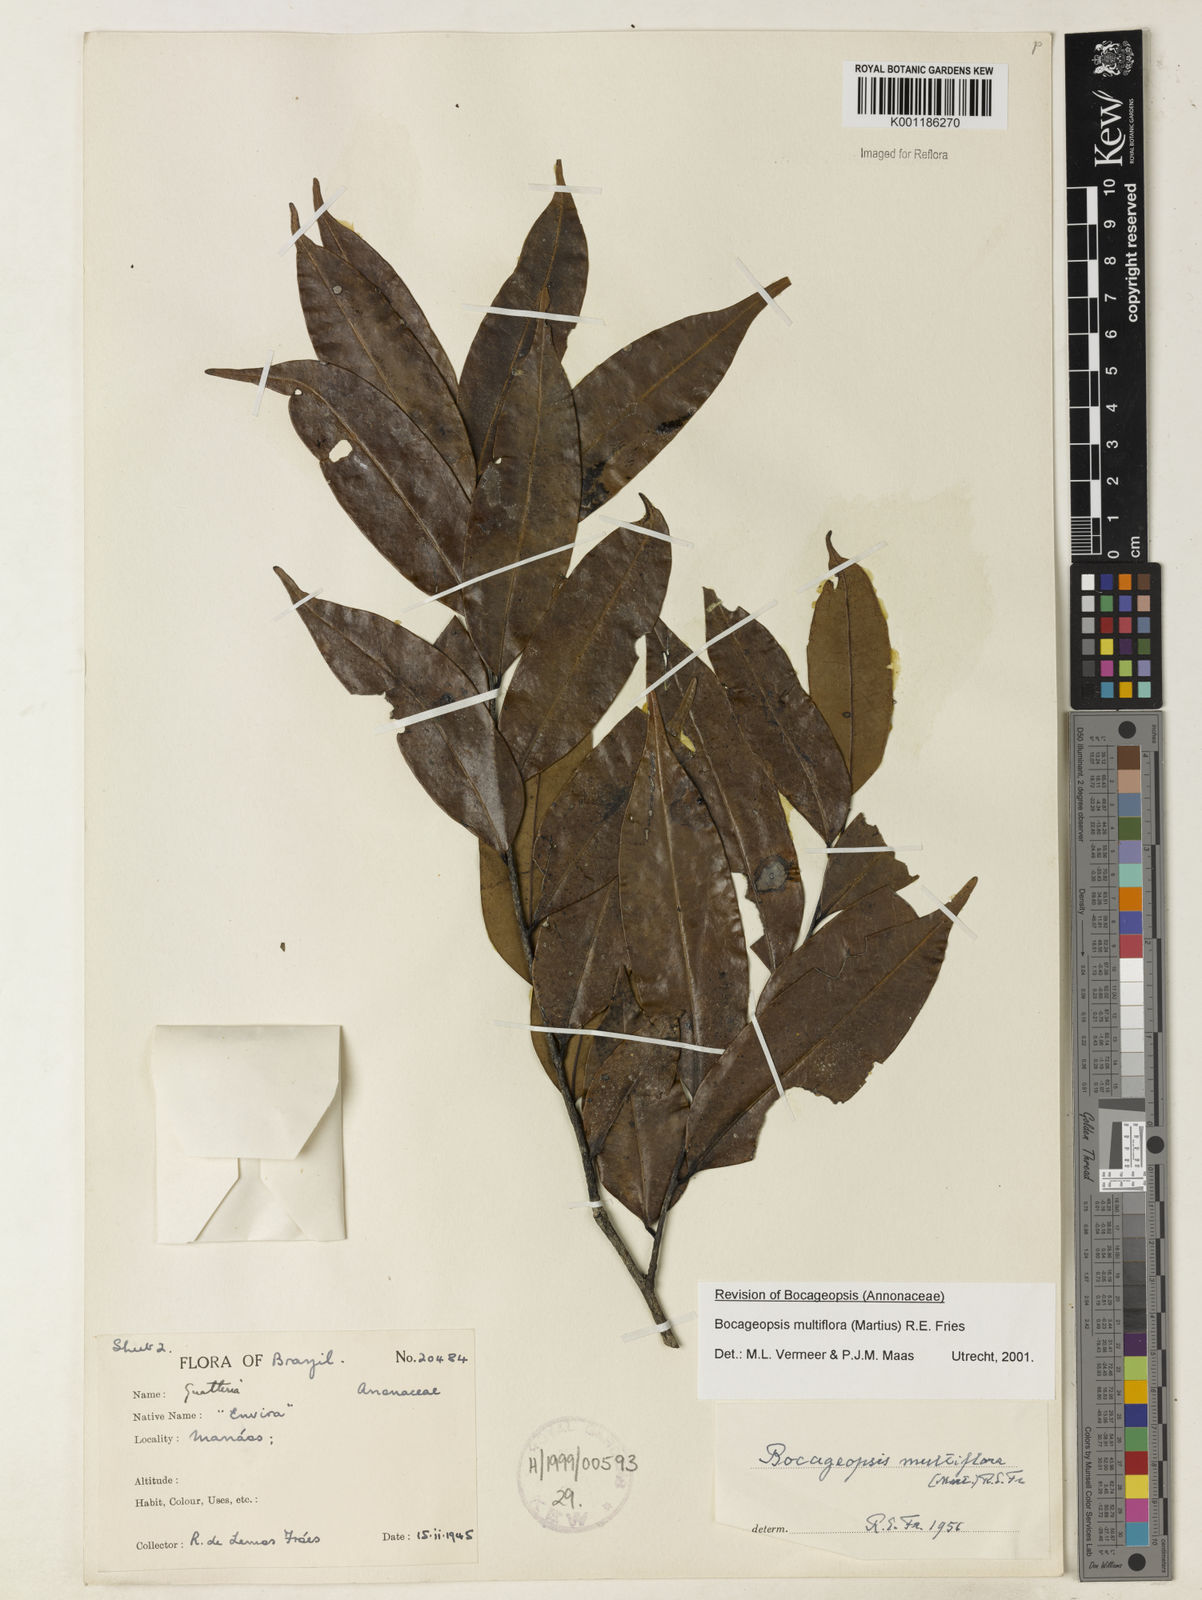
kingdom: Plantae
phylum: Tracheophyta
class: Magnoliopsida
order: Magnoliales
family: Annonaceae
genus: Bocageopsis
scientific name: Bocageopsis multiflora
